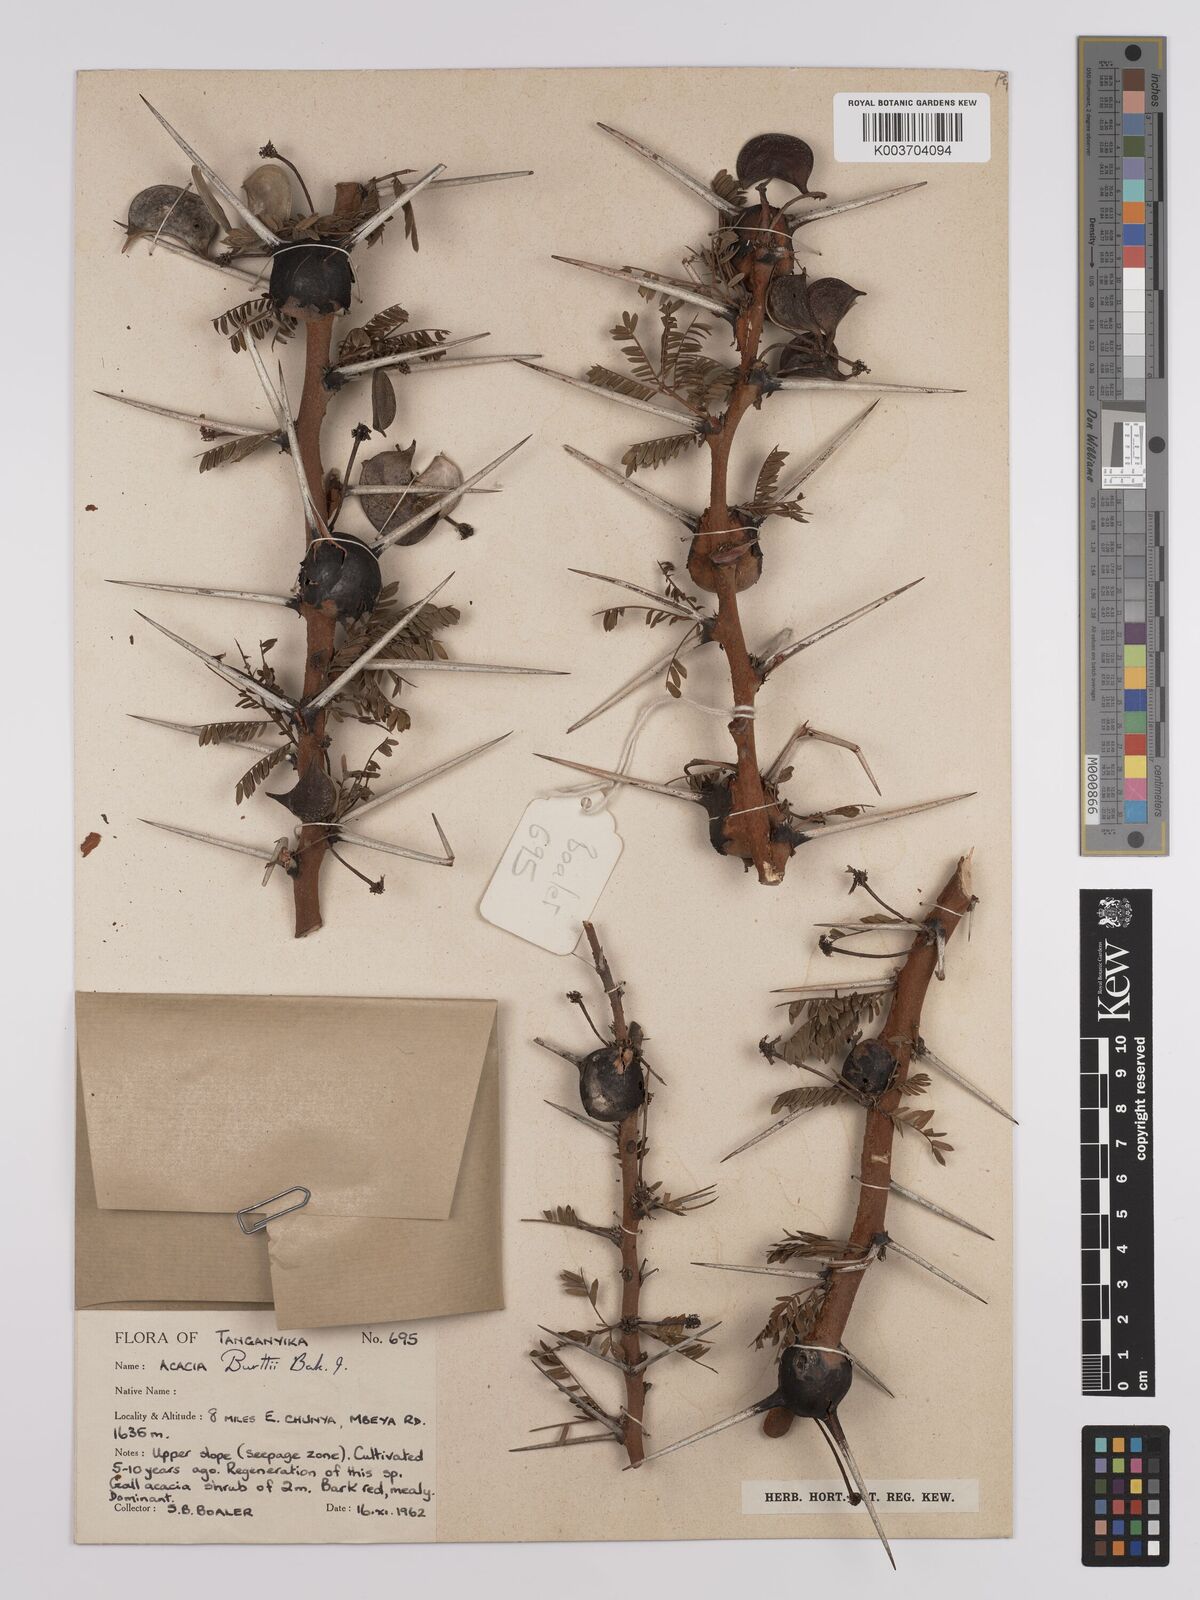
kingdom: Plantae
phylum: Tracheophyta
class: Magnoliopsida
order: Fabales
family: Fabaceae
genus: Vachellia
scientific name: Vachellia burttii
